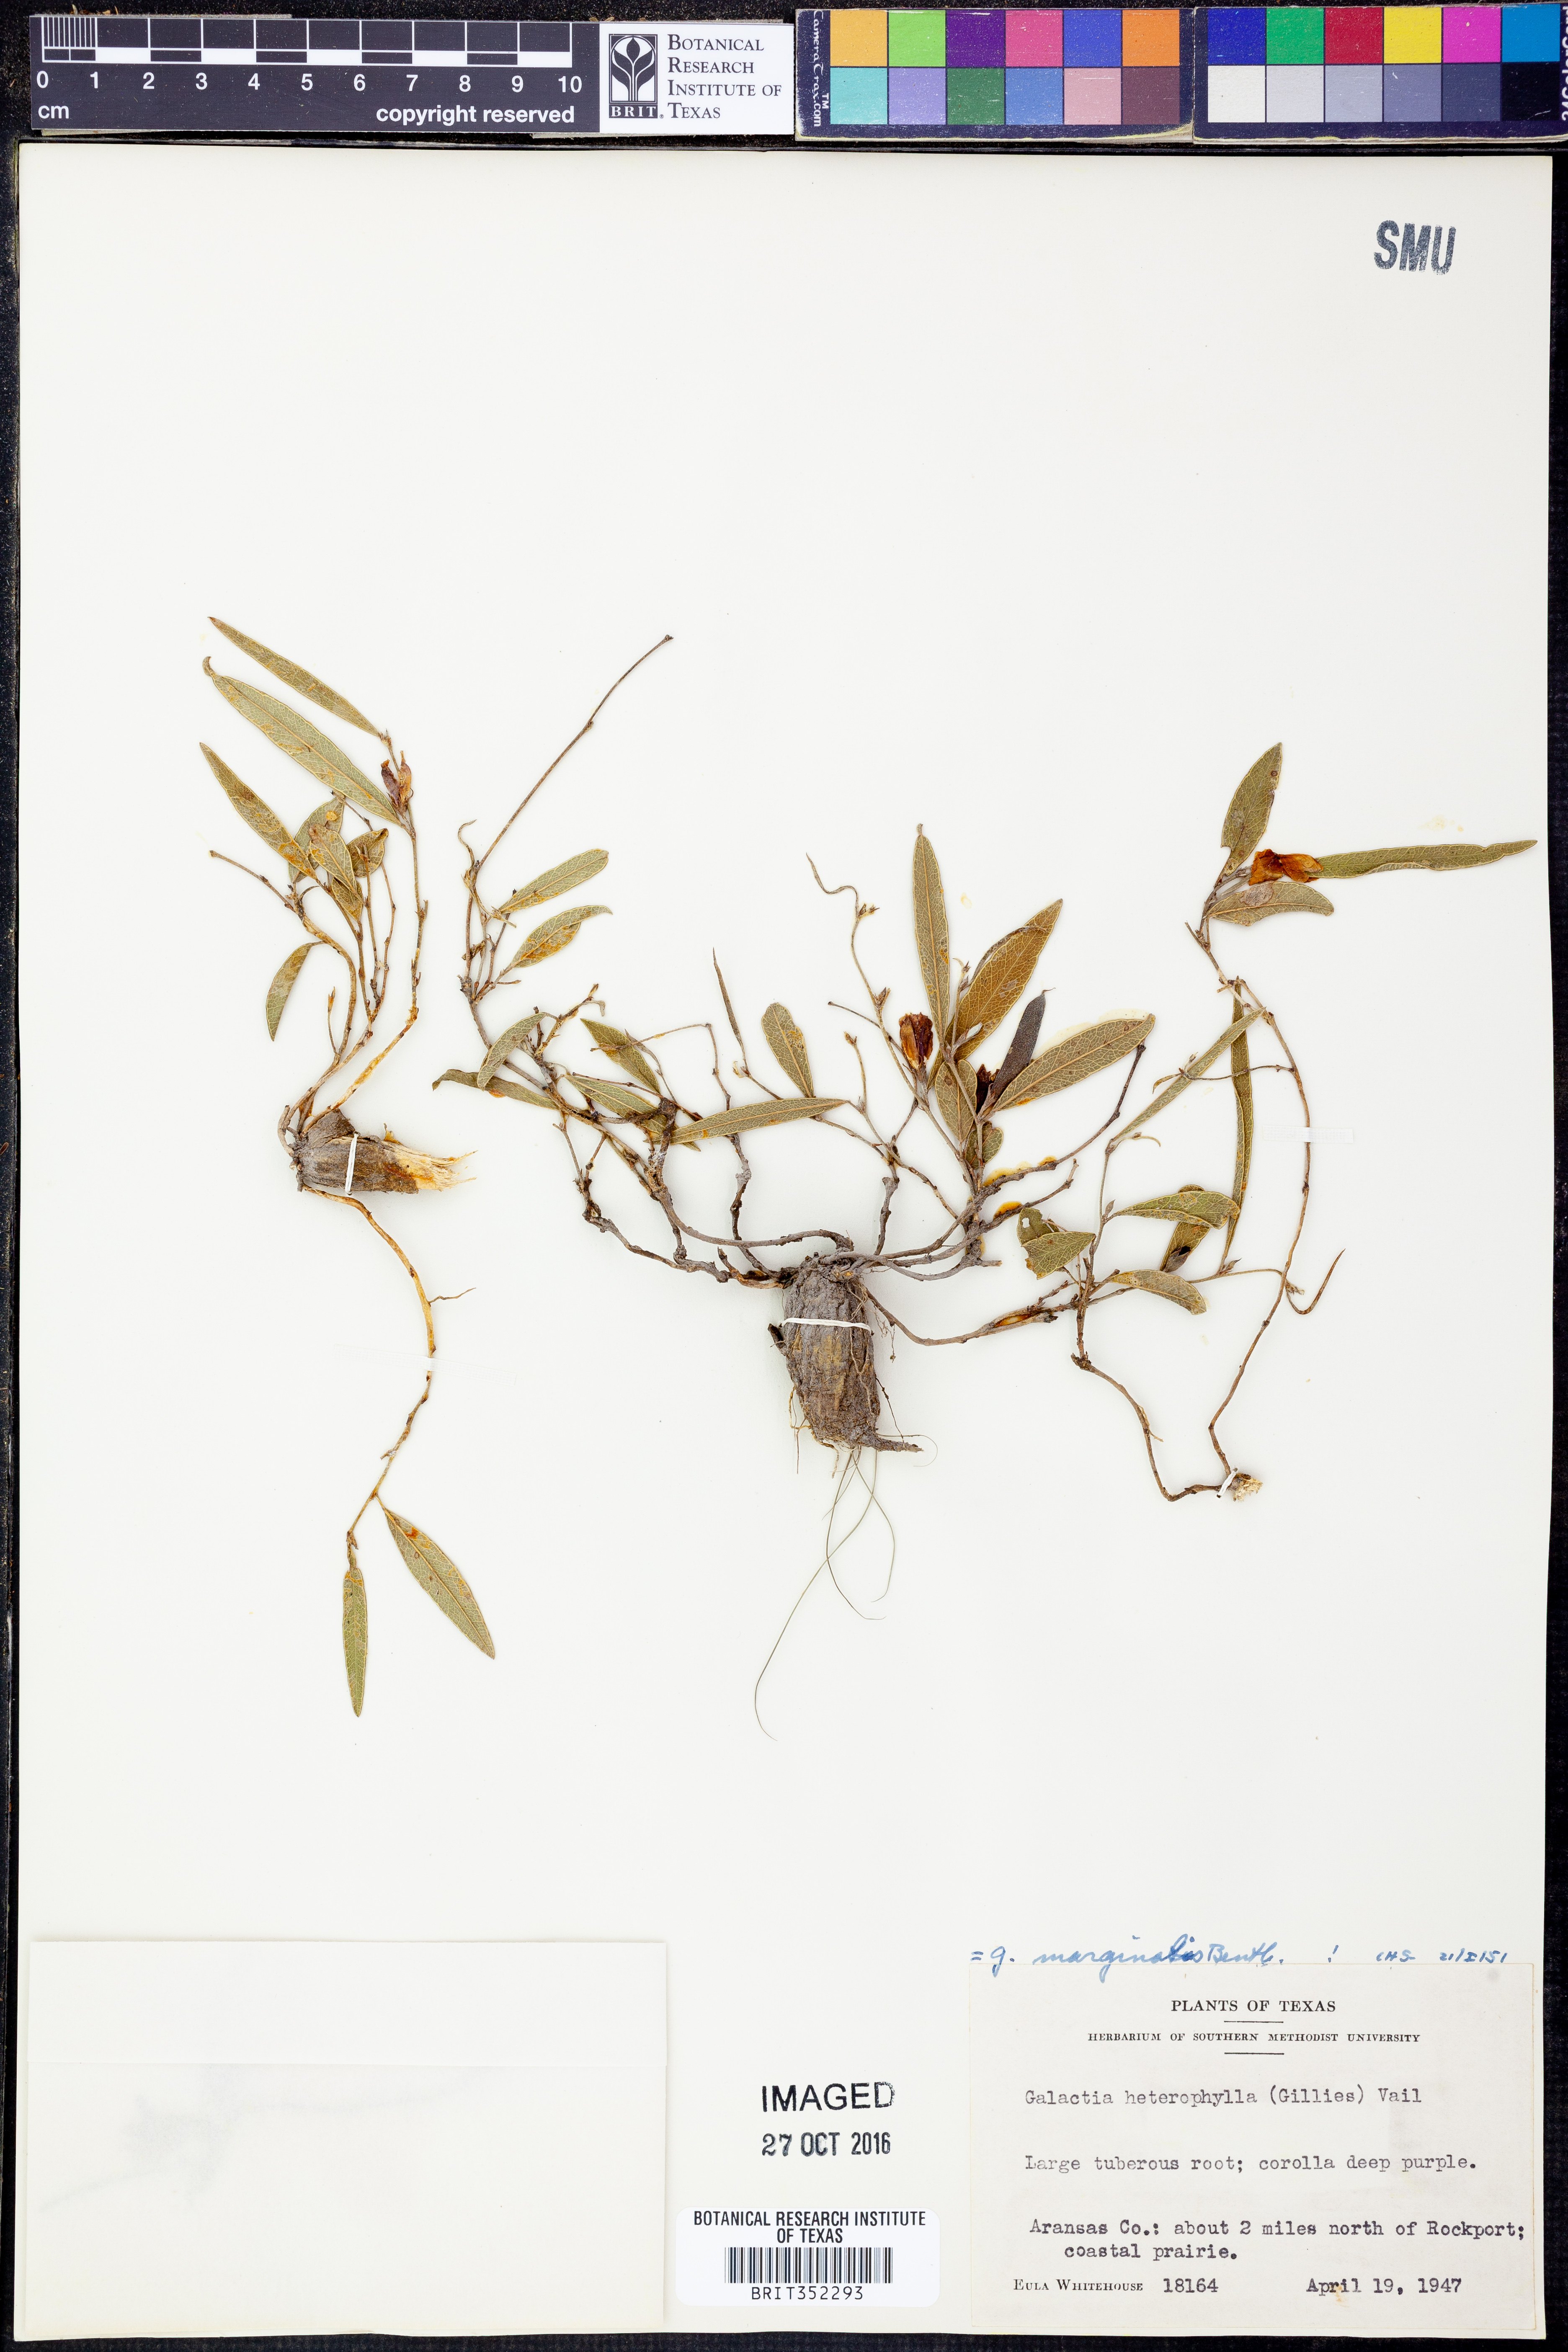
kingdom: Plantae
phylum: Tracheophyta
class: Magnoliopsida
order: Fabales
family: Fabaceae
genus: Nanogalactia
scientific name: Nanogalactia heterophylla
